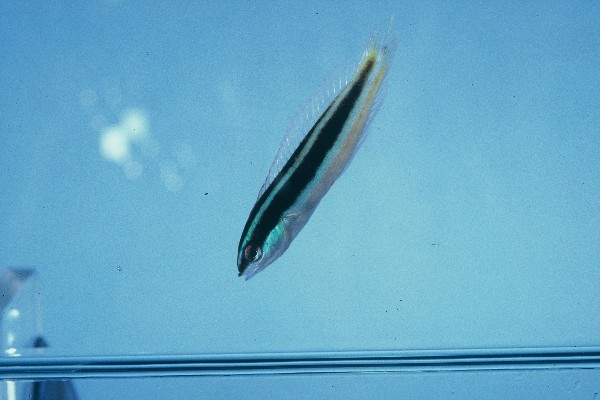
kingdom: Animalia
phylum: Chordata
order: Perciformes
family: Labridae
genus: Pseudocoris
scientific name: Pseudocoris occidentalis
